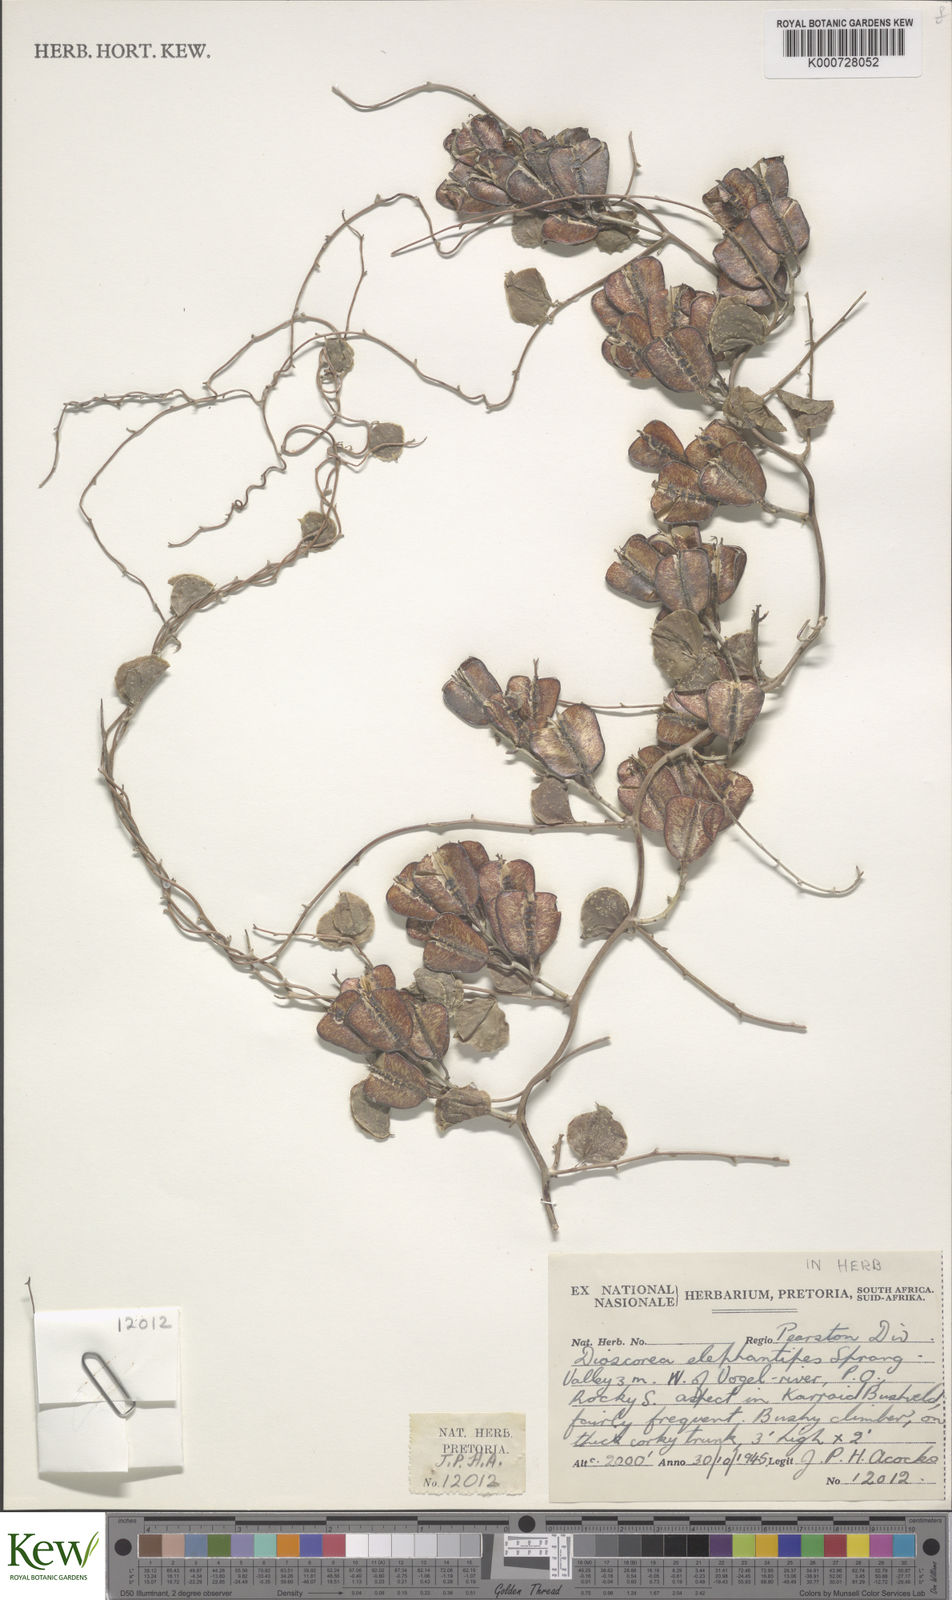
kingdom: Plantae
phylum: Tracheophyta
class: Liliopsida
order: Dioscoreales
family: Dioscoreaceae
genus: Dioscorea
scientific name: Dioscorea
